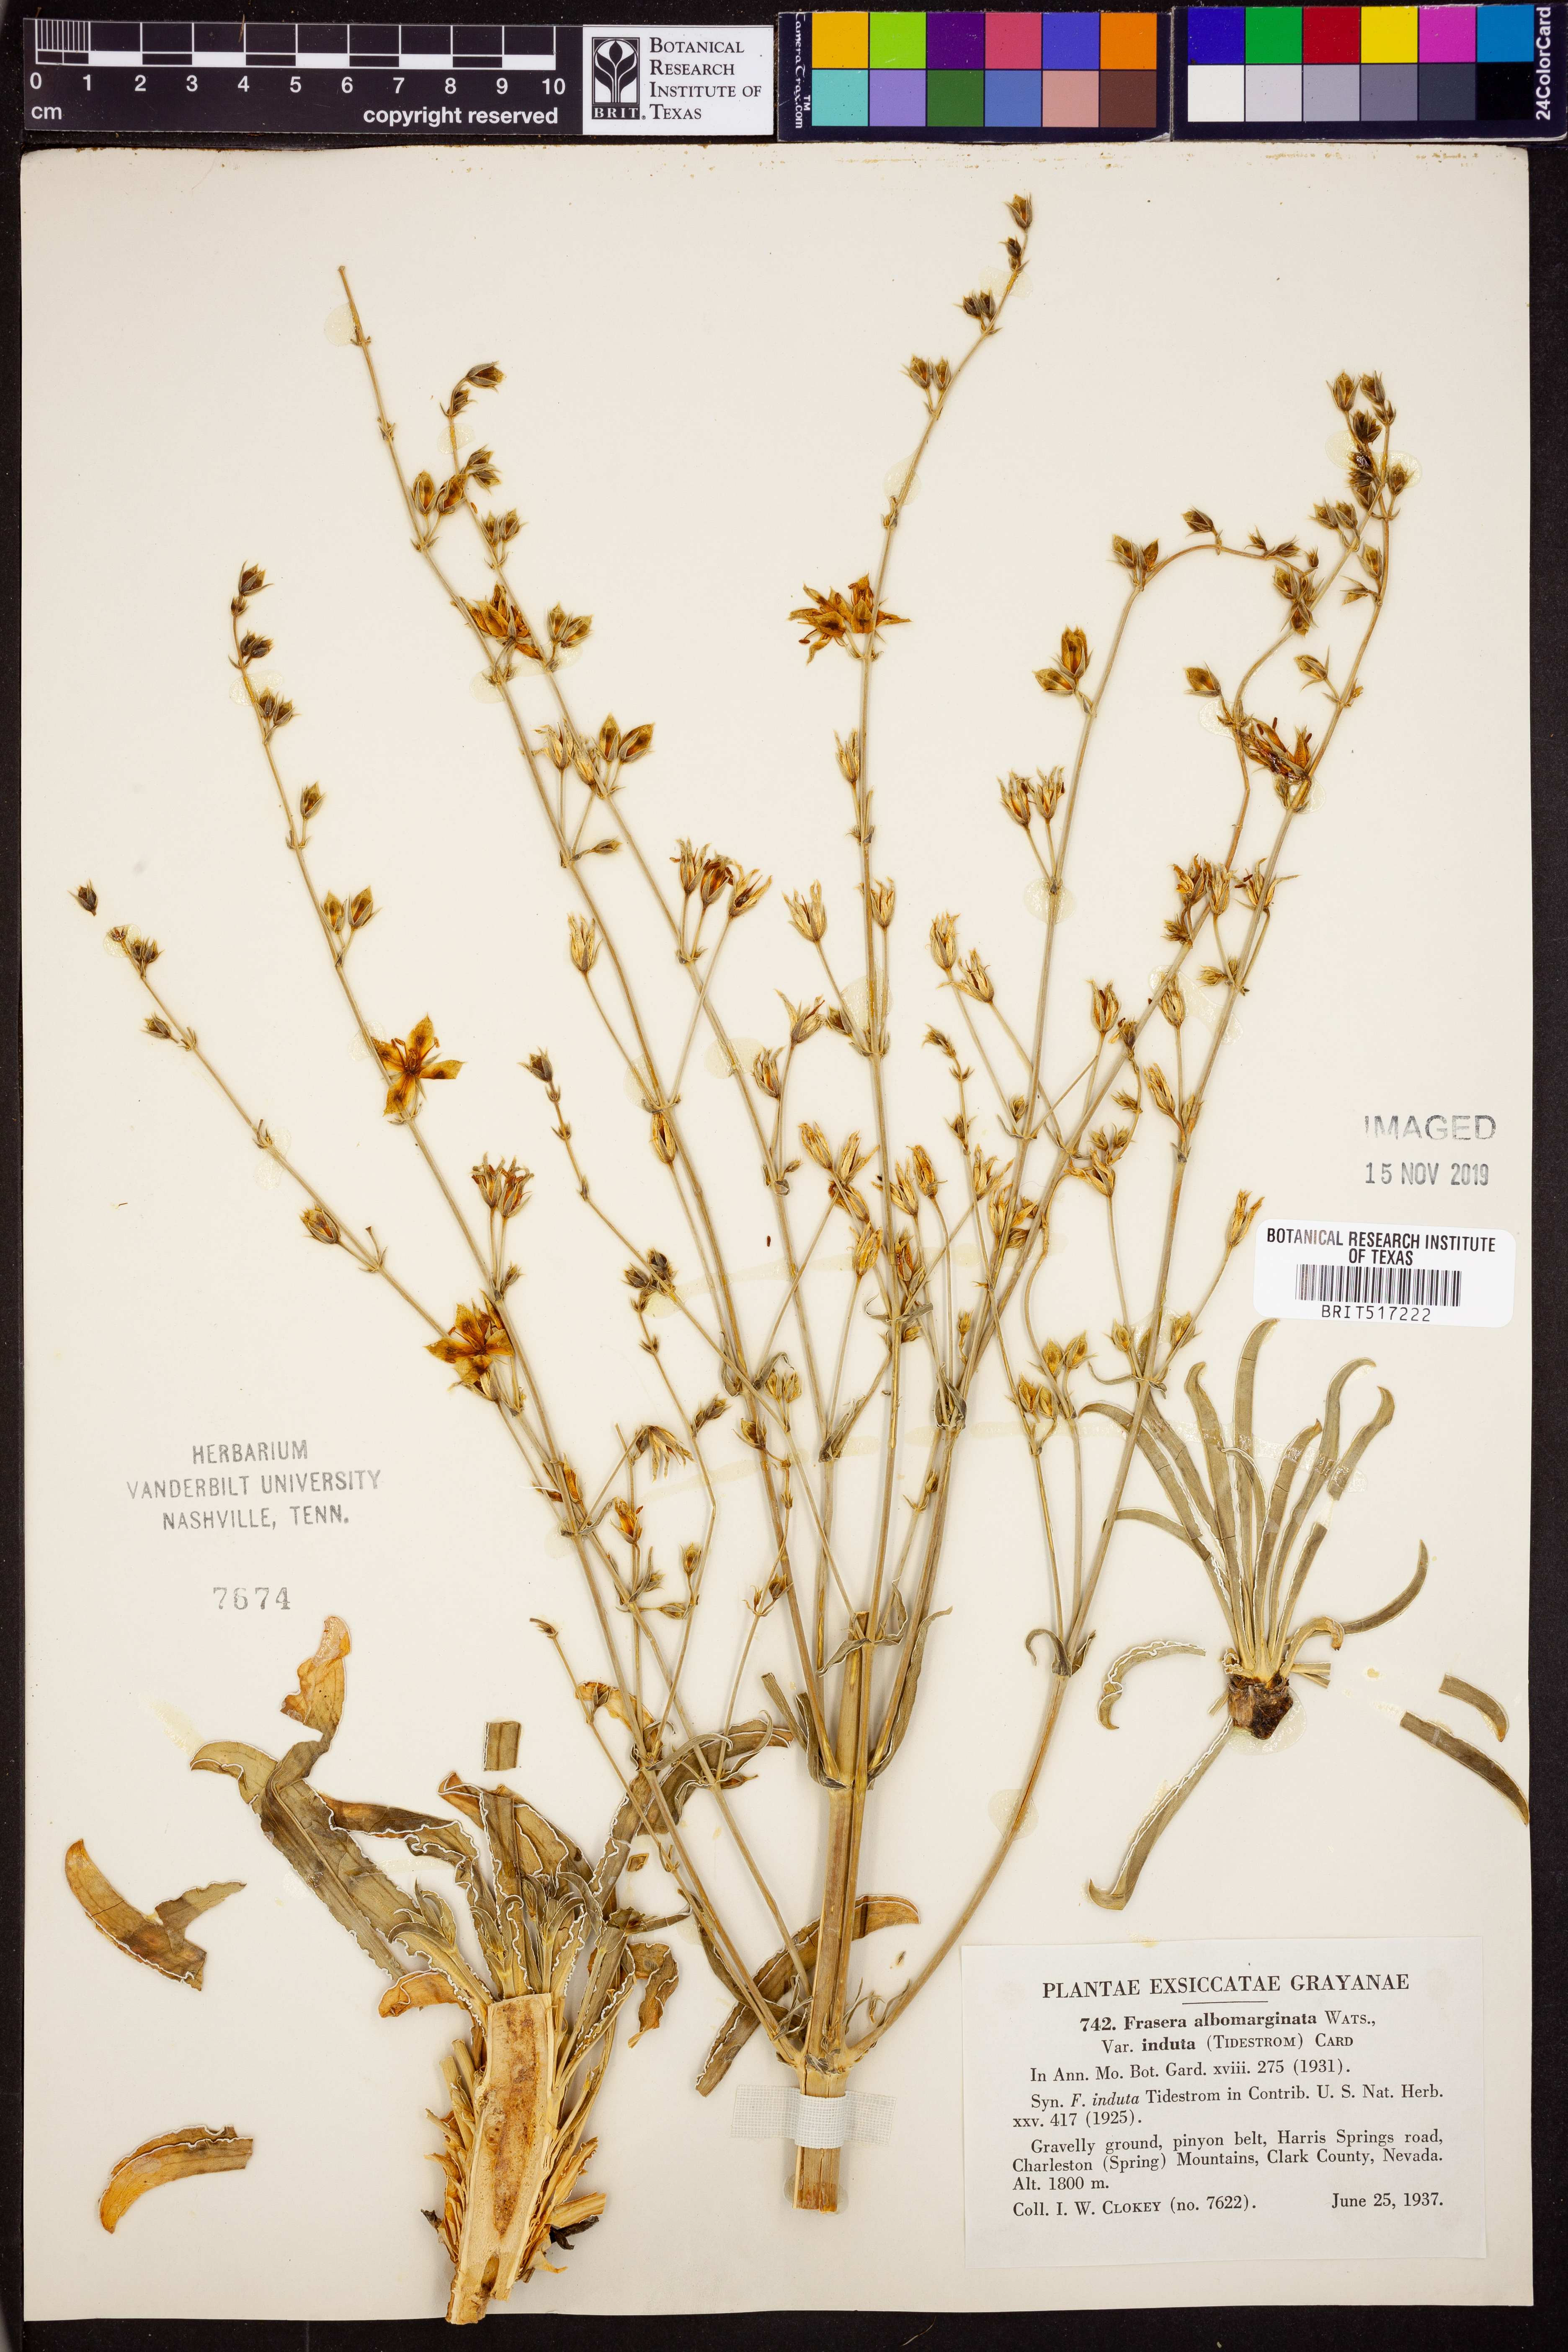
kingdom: Plantae
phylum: Tracheophyta
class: Magnoliopsida
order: Gentianales
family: Gentianaceae
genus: Frasera
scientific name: Frasera albomarginata
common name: Desert frasera
